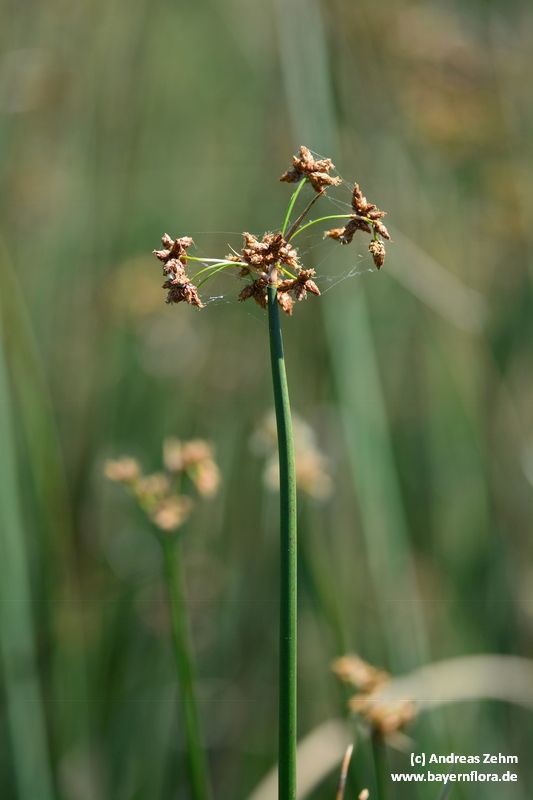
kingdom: Plantae
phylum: Tracheophyta
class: Liliopsida
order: Poales
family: Cyperaceae
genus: Schoenoplectus
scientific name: Schoenoplectus lacustris
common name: Common club-rush
